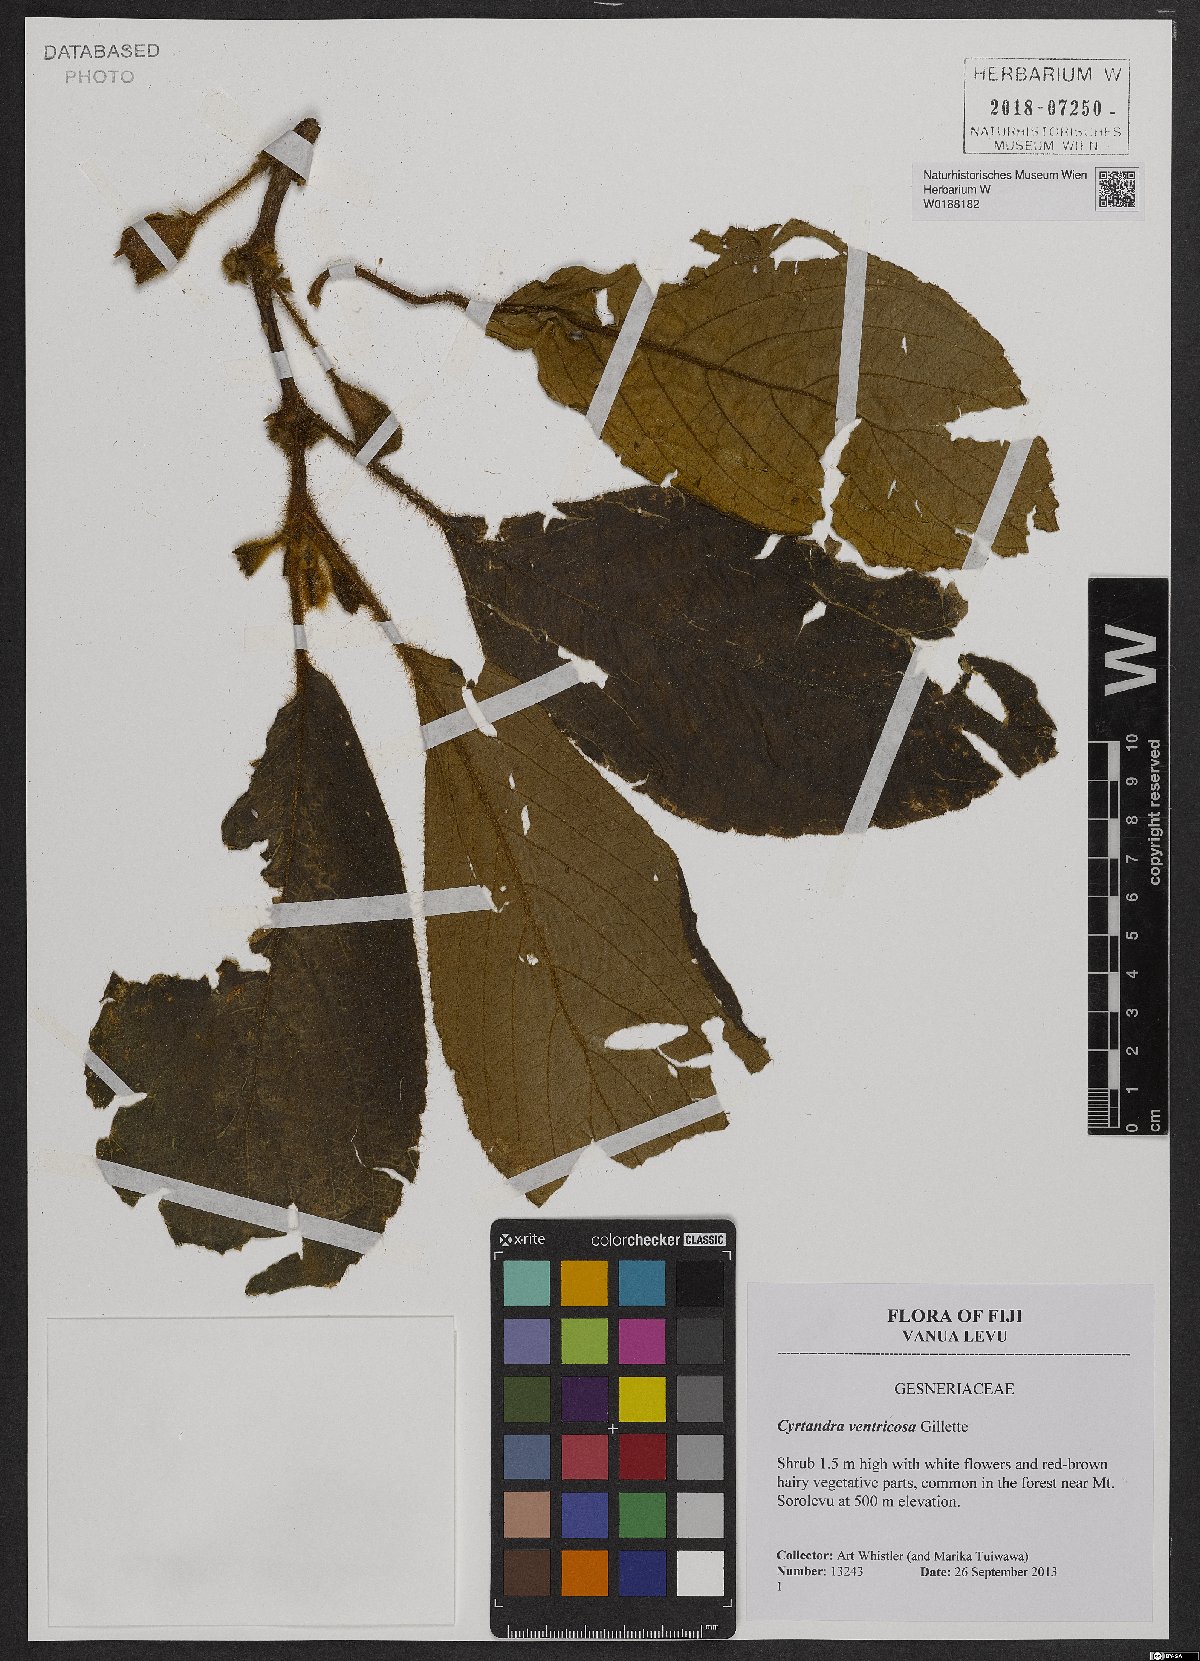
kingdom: Plantae
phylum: Tracheophyta
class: Magnoliopsida
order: Lamiales
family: Gesneriaceae
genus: Cyrtandra
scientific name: Cyrtandra ventricosa
